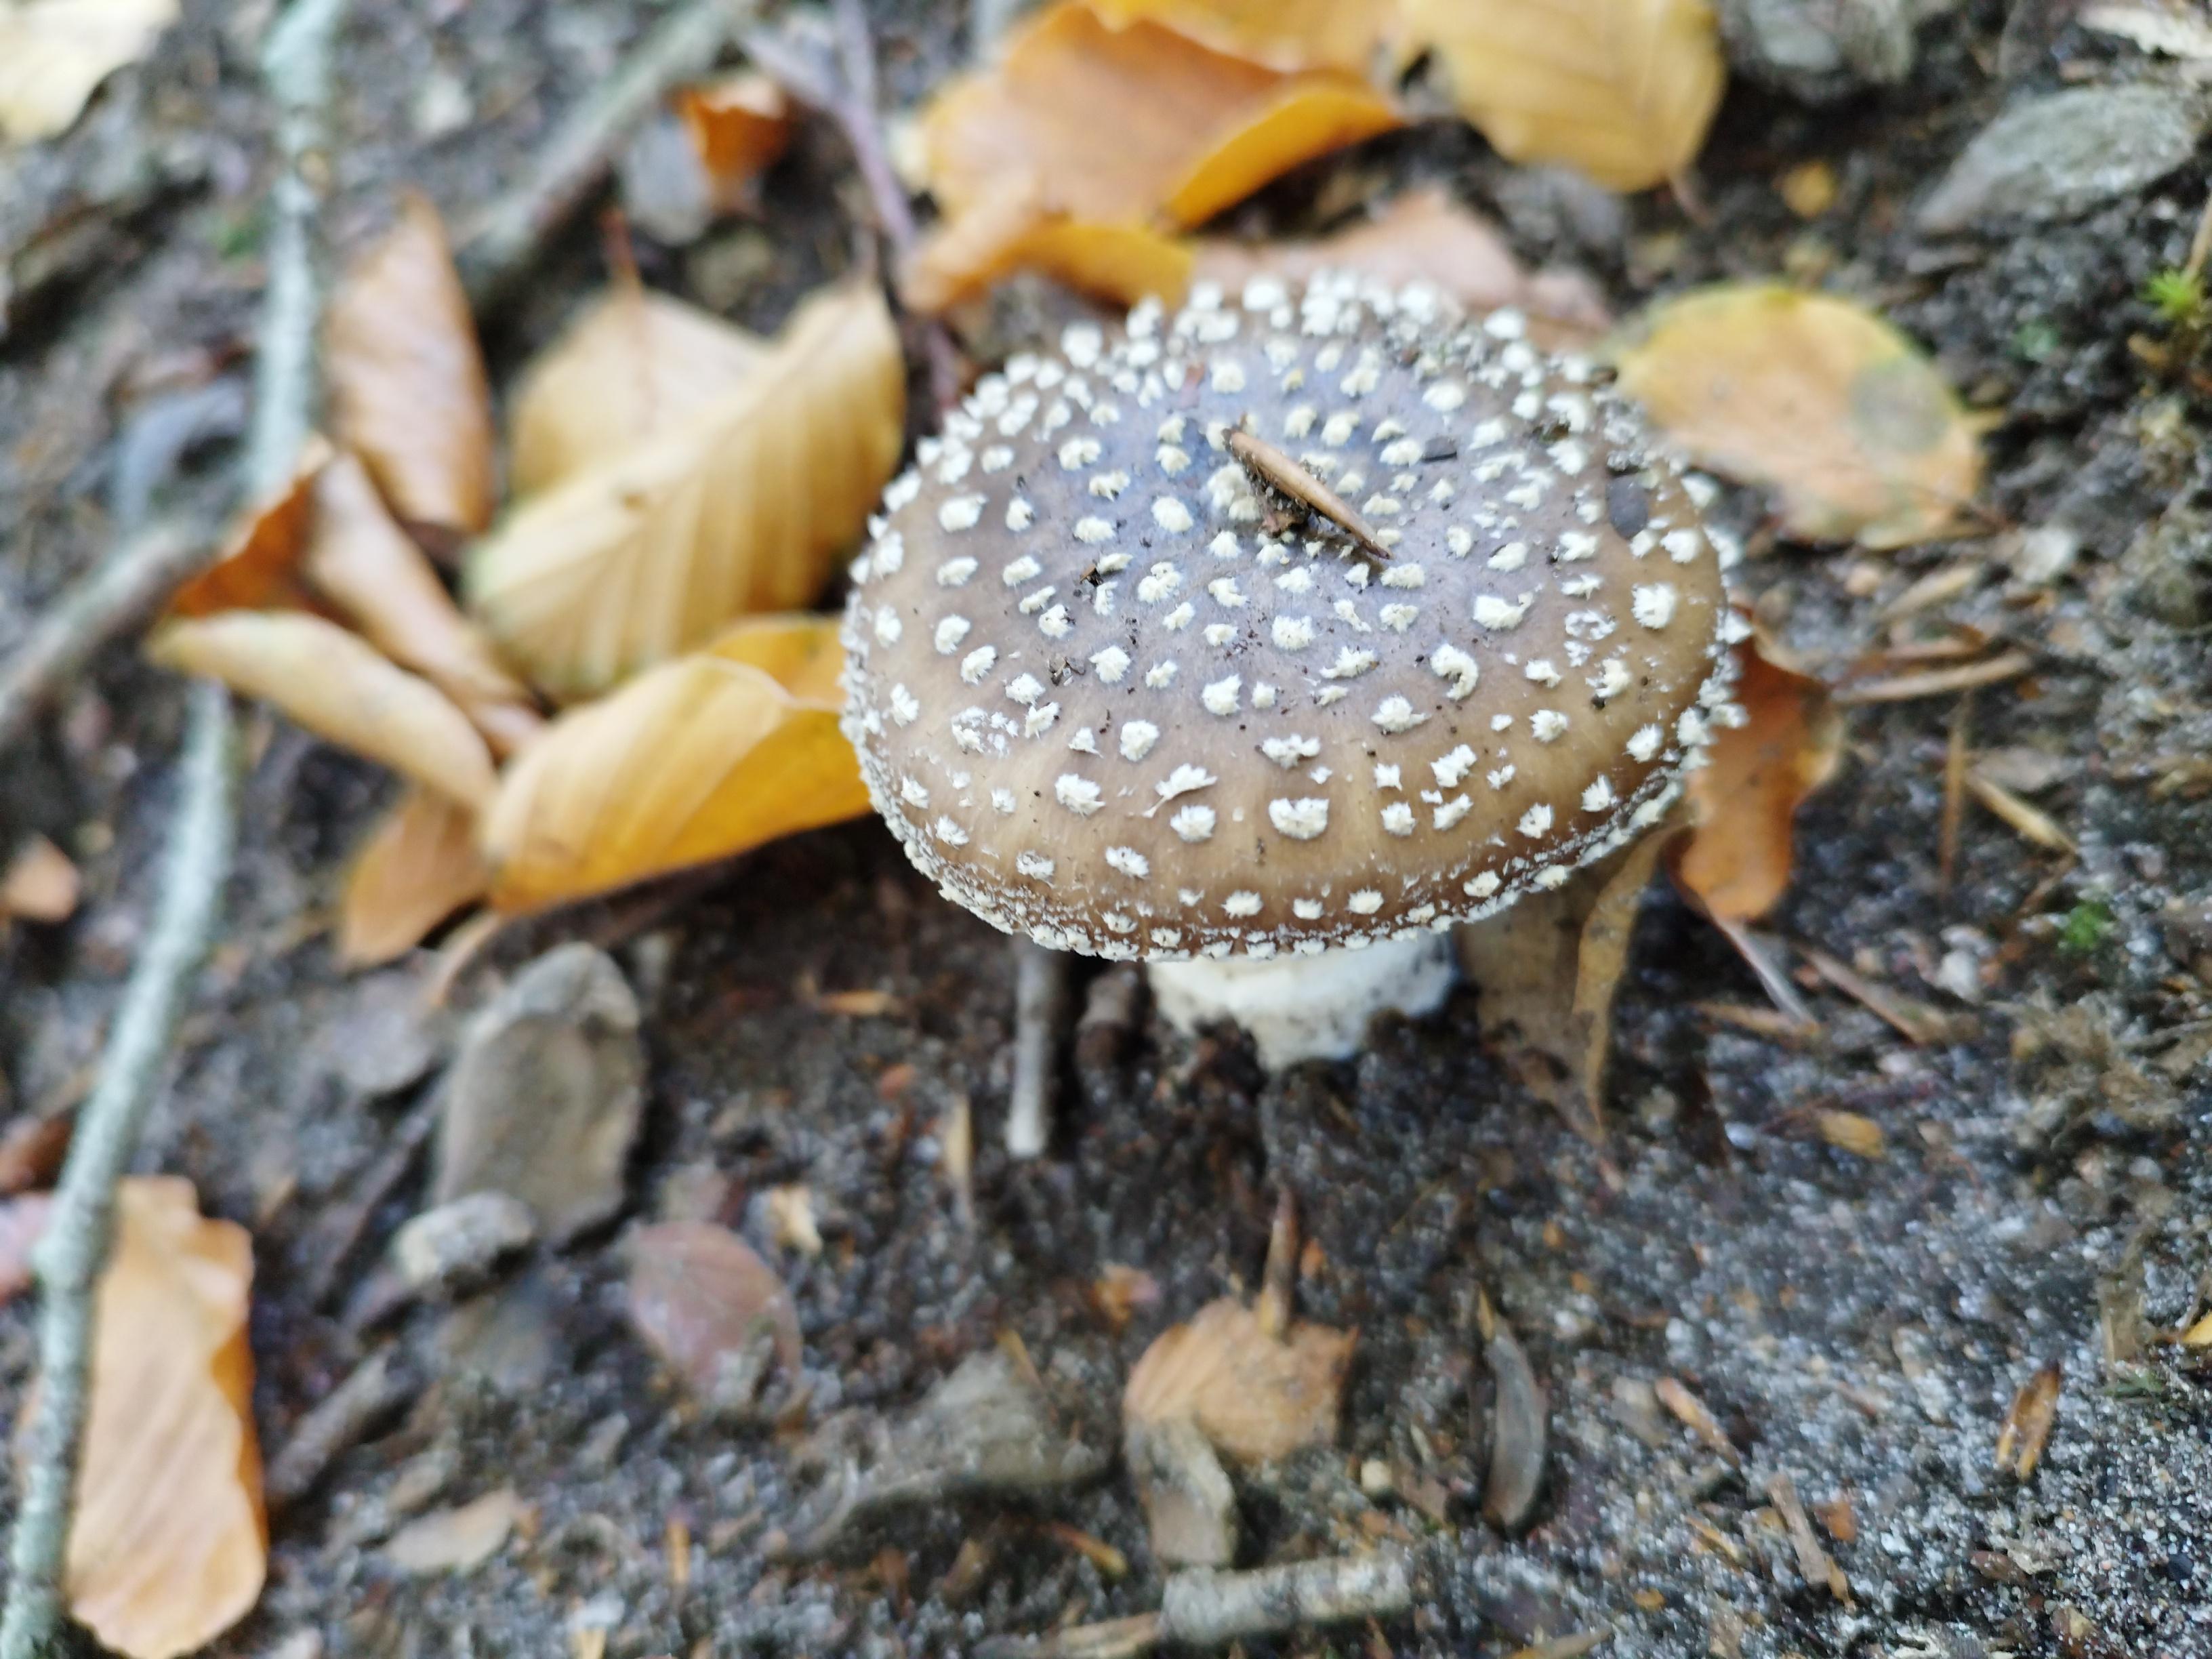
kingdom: Fungi
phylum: Basidiomycota
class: Agaricomycetes
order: Agaricales
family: Amanitaceae
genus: Amanita
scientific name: Amanita pantherina
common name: panter-fluesvamp
